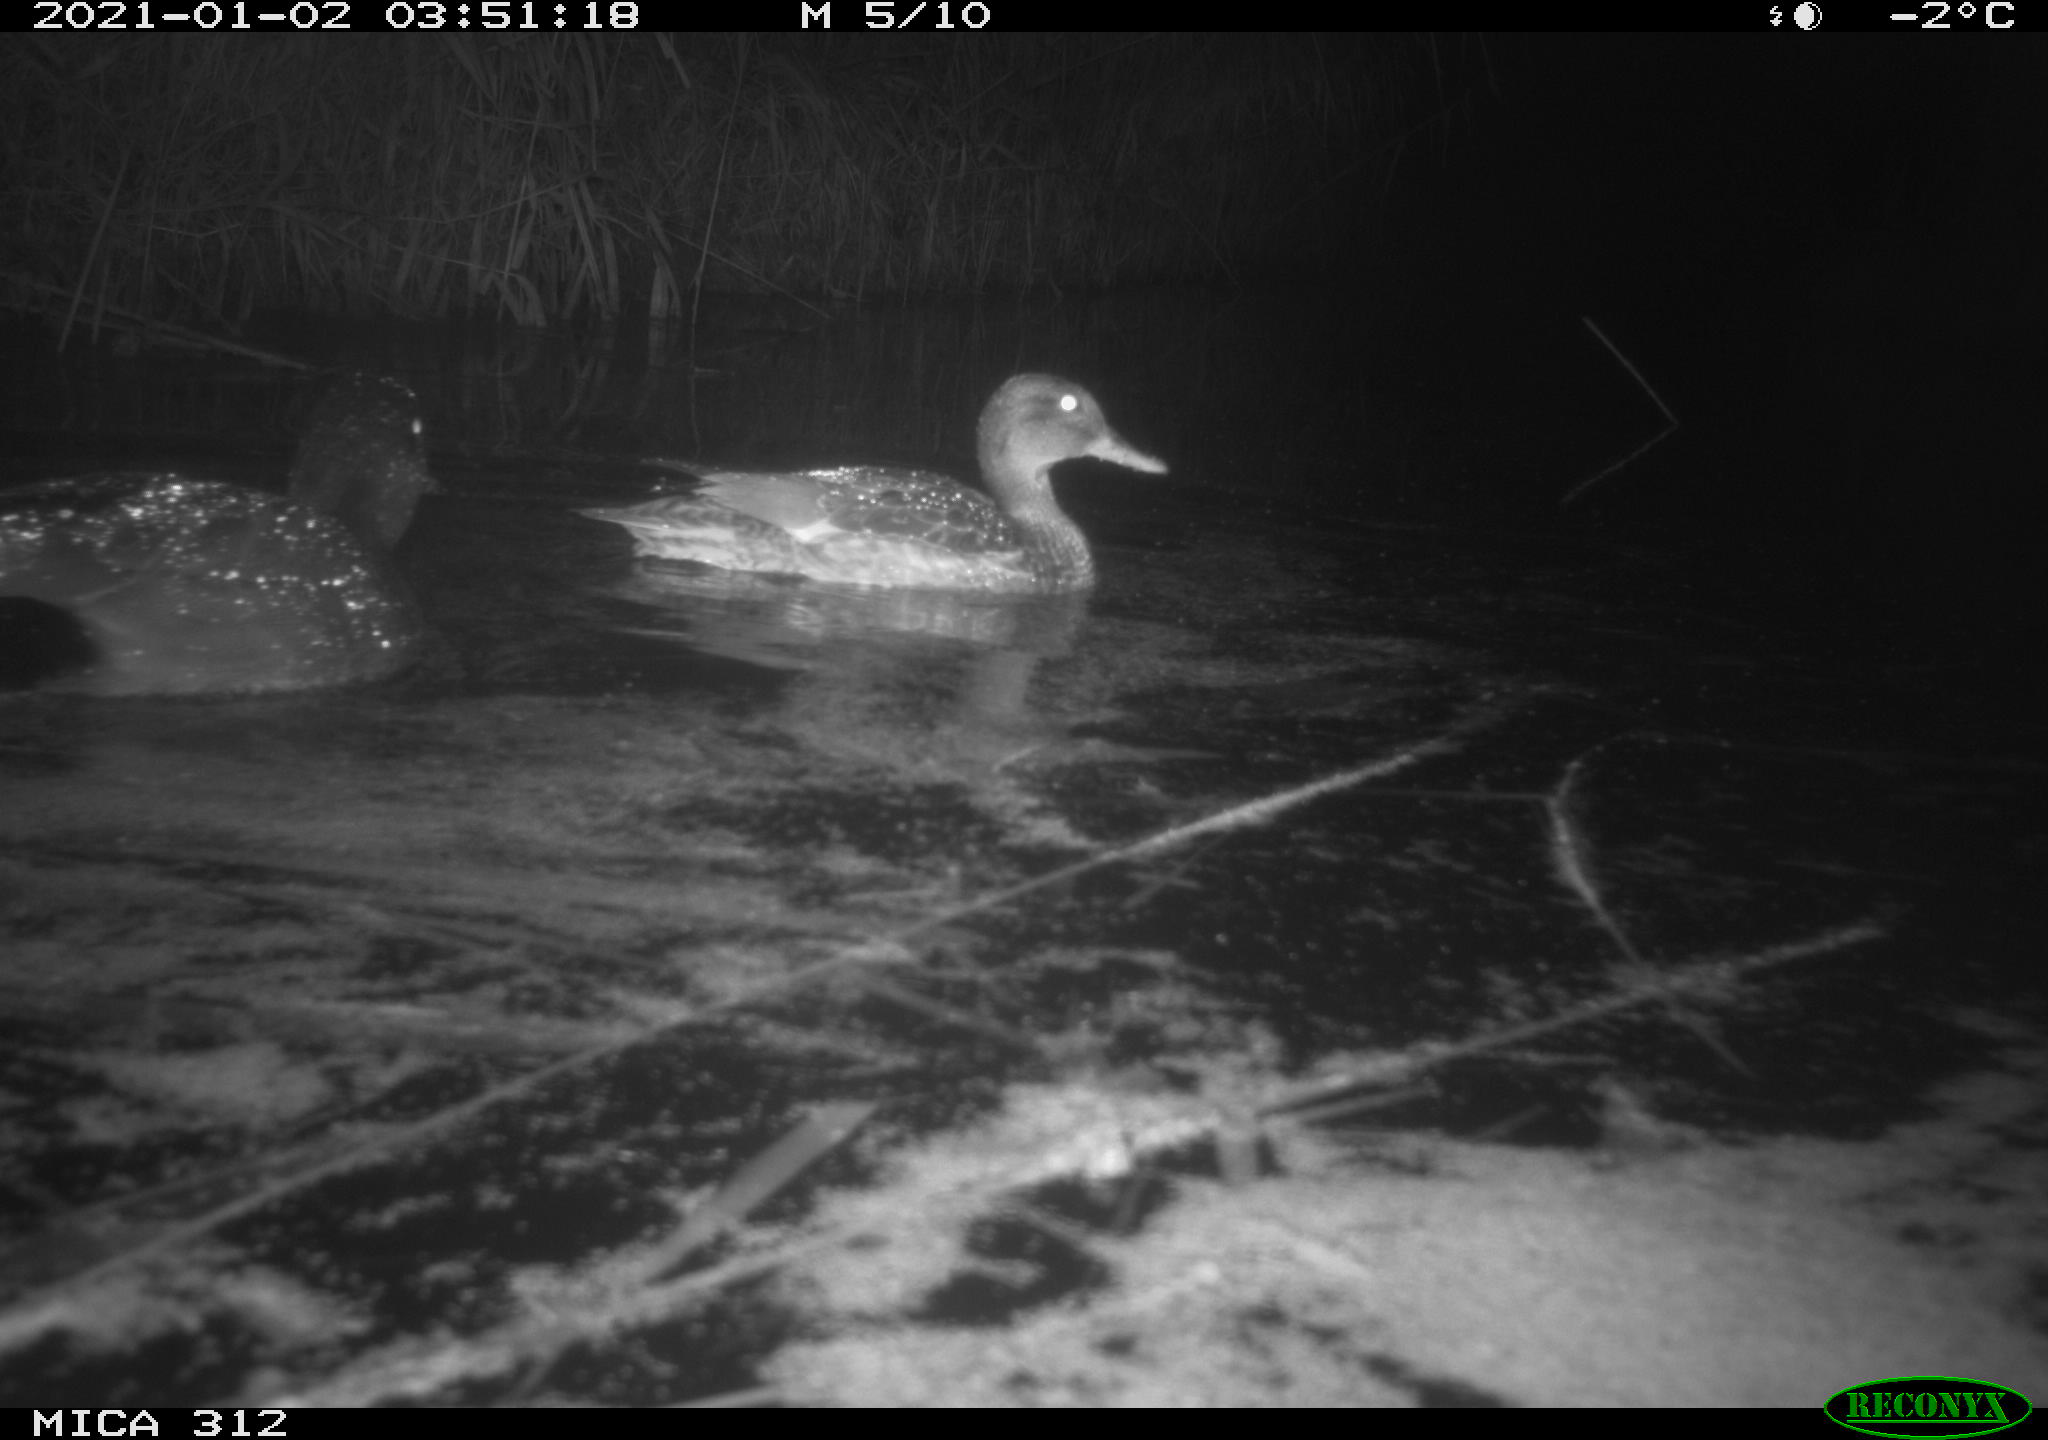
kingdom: Animalia
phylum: Chordata
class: Aves
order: Anseriformes
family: Anatidae
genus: Mareca
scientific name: Mareca strepera
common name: Gadwall
